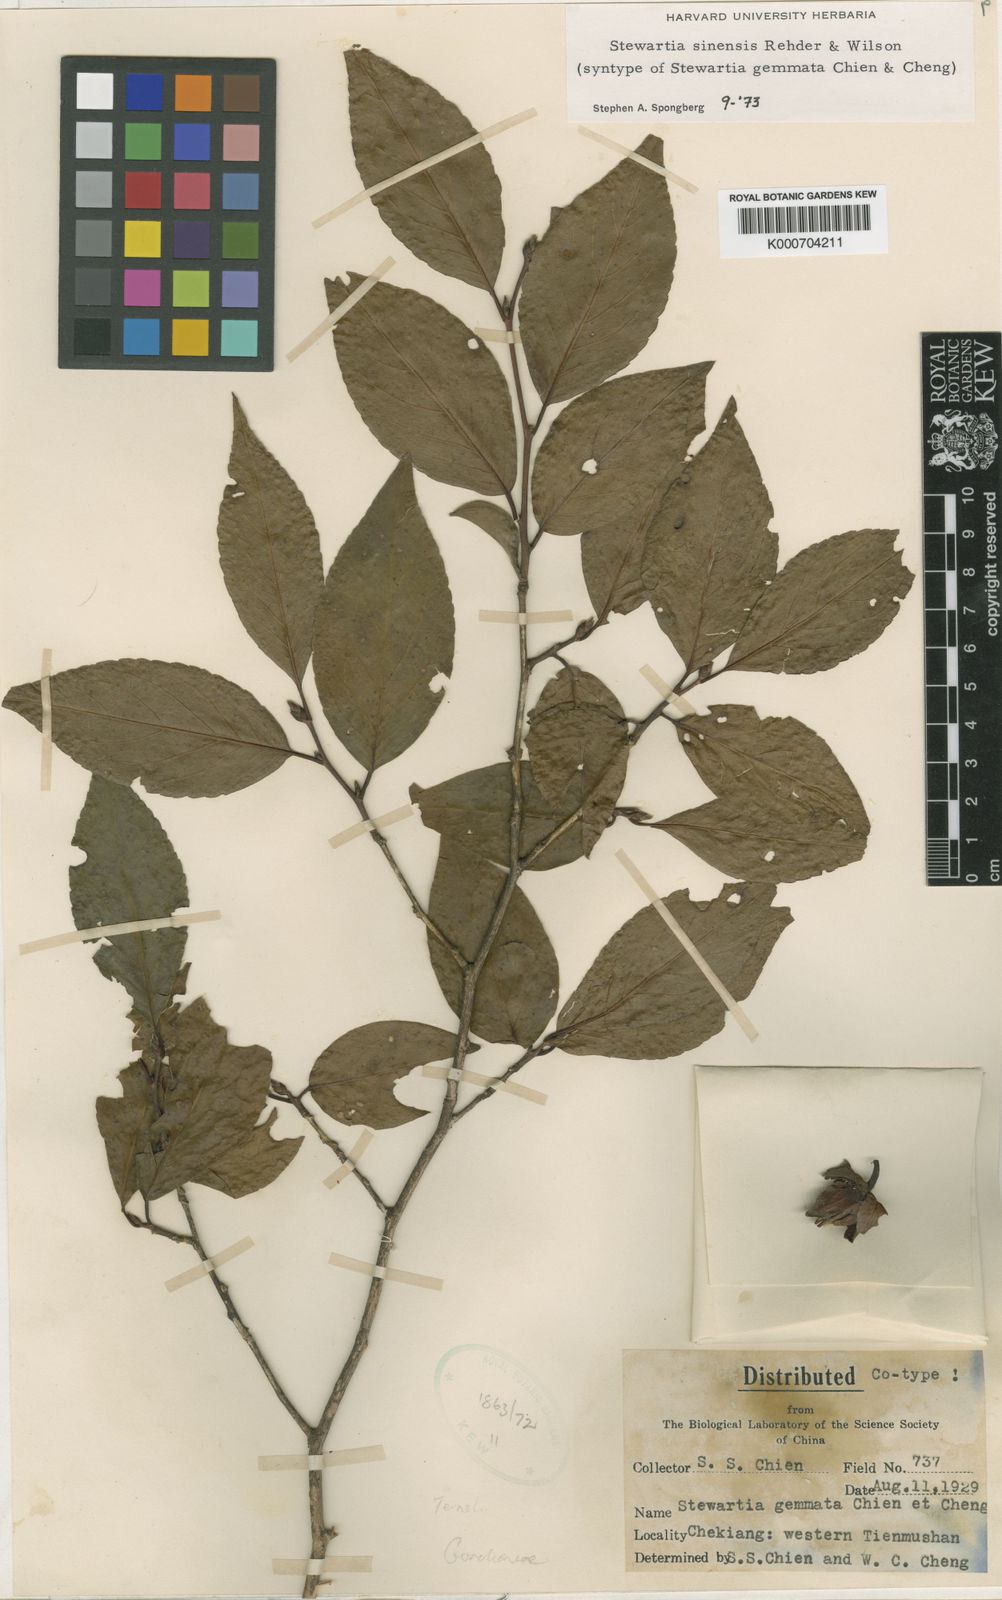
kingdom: Plantae
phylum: Tracheophyta
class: Magnoliopsida
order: Ericales
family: Theaceae
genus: Stewartia
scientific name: Stewartia sinensis
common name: Chinese stewartia
